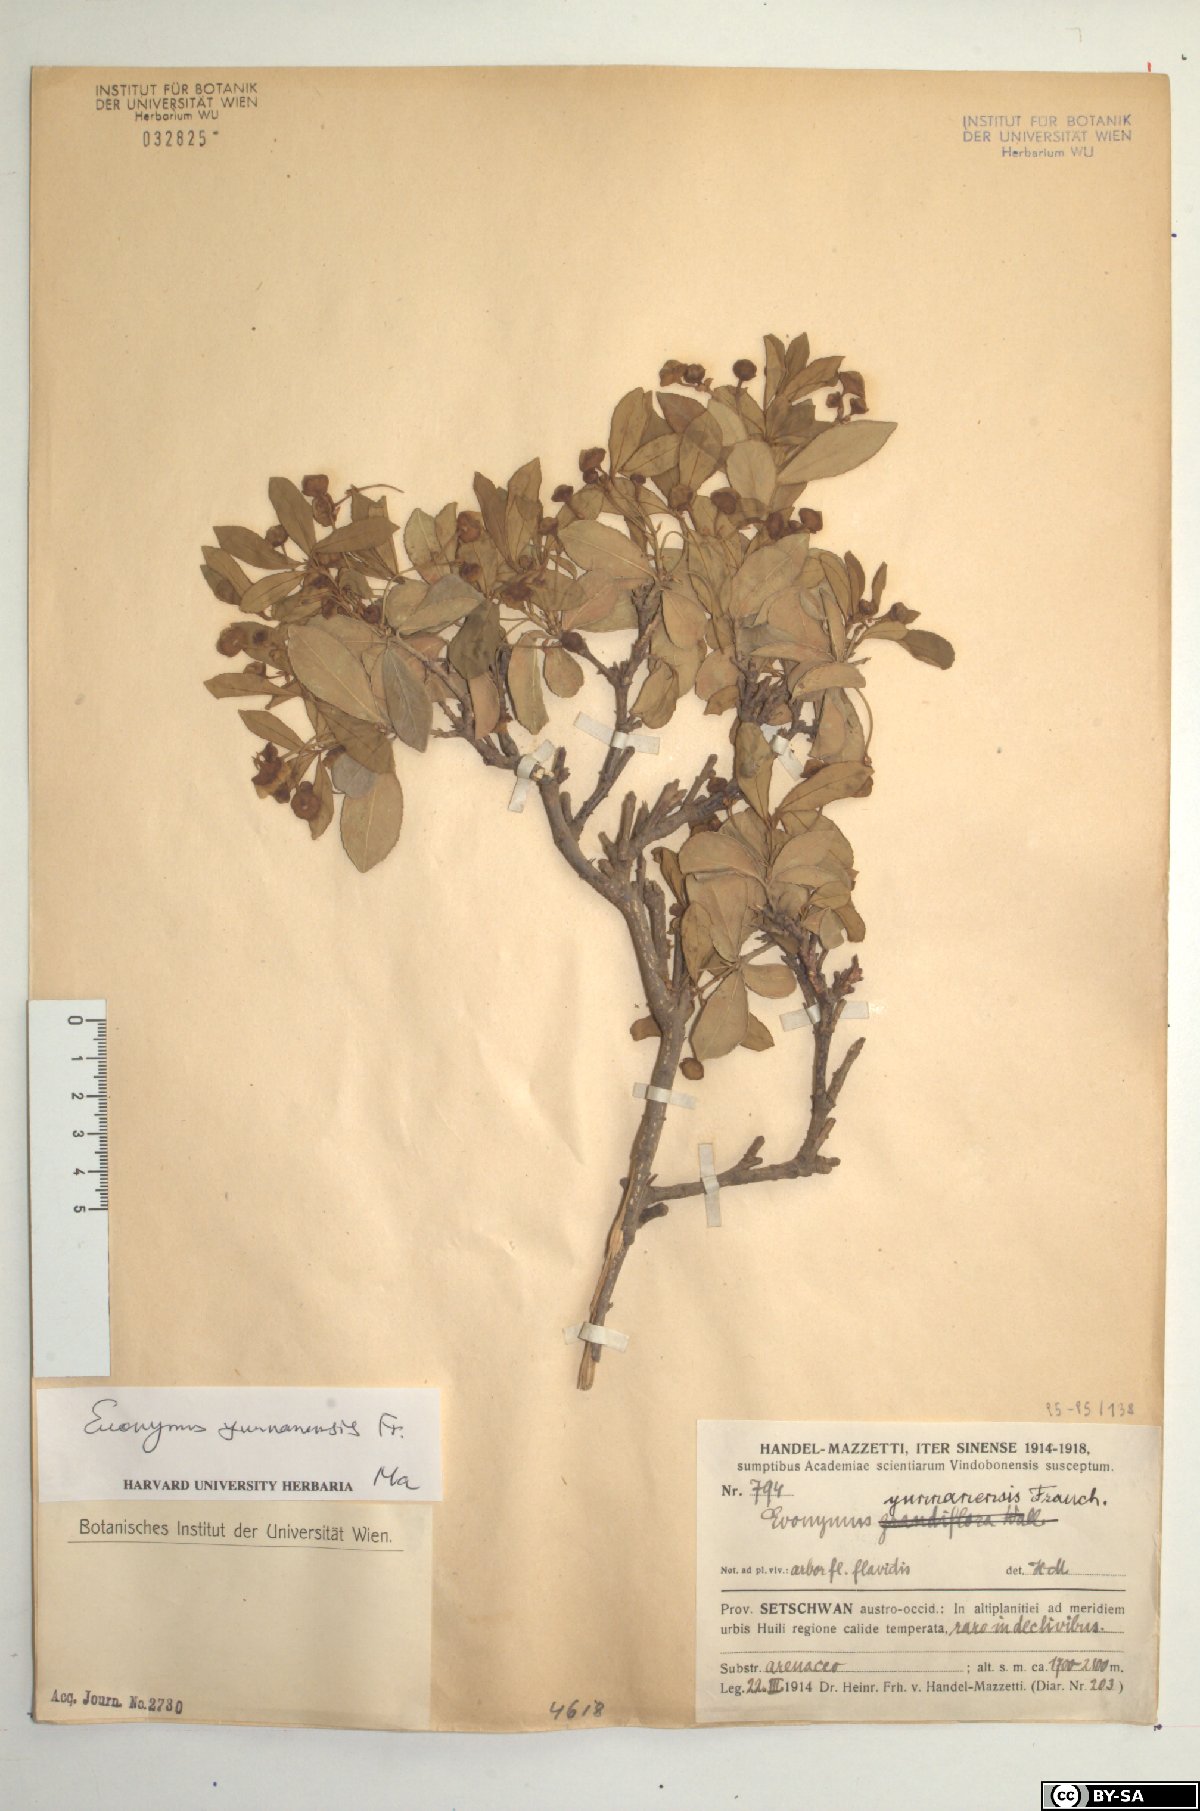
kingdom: Plantae
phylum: Tracheophyta
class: Magnoliopsida
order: Celastrales
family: Celastraceae
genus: Euonymus
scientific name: Euonymus yunnanensis
